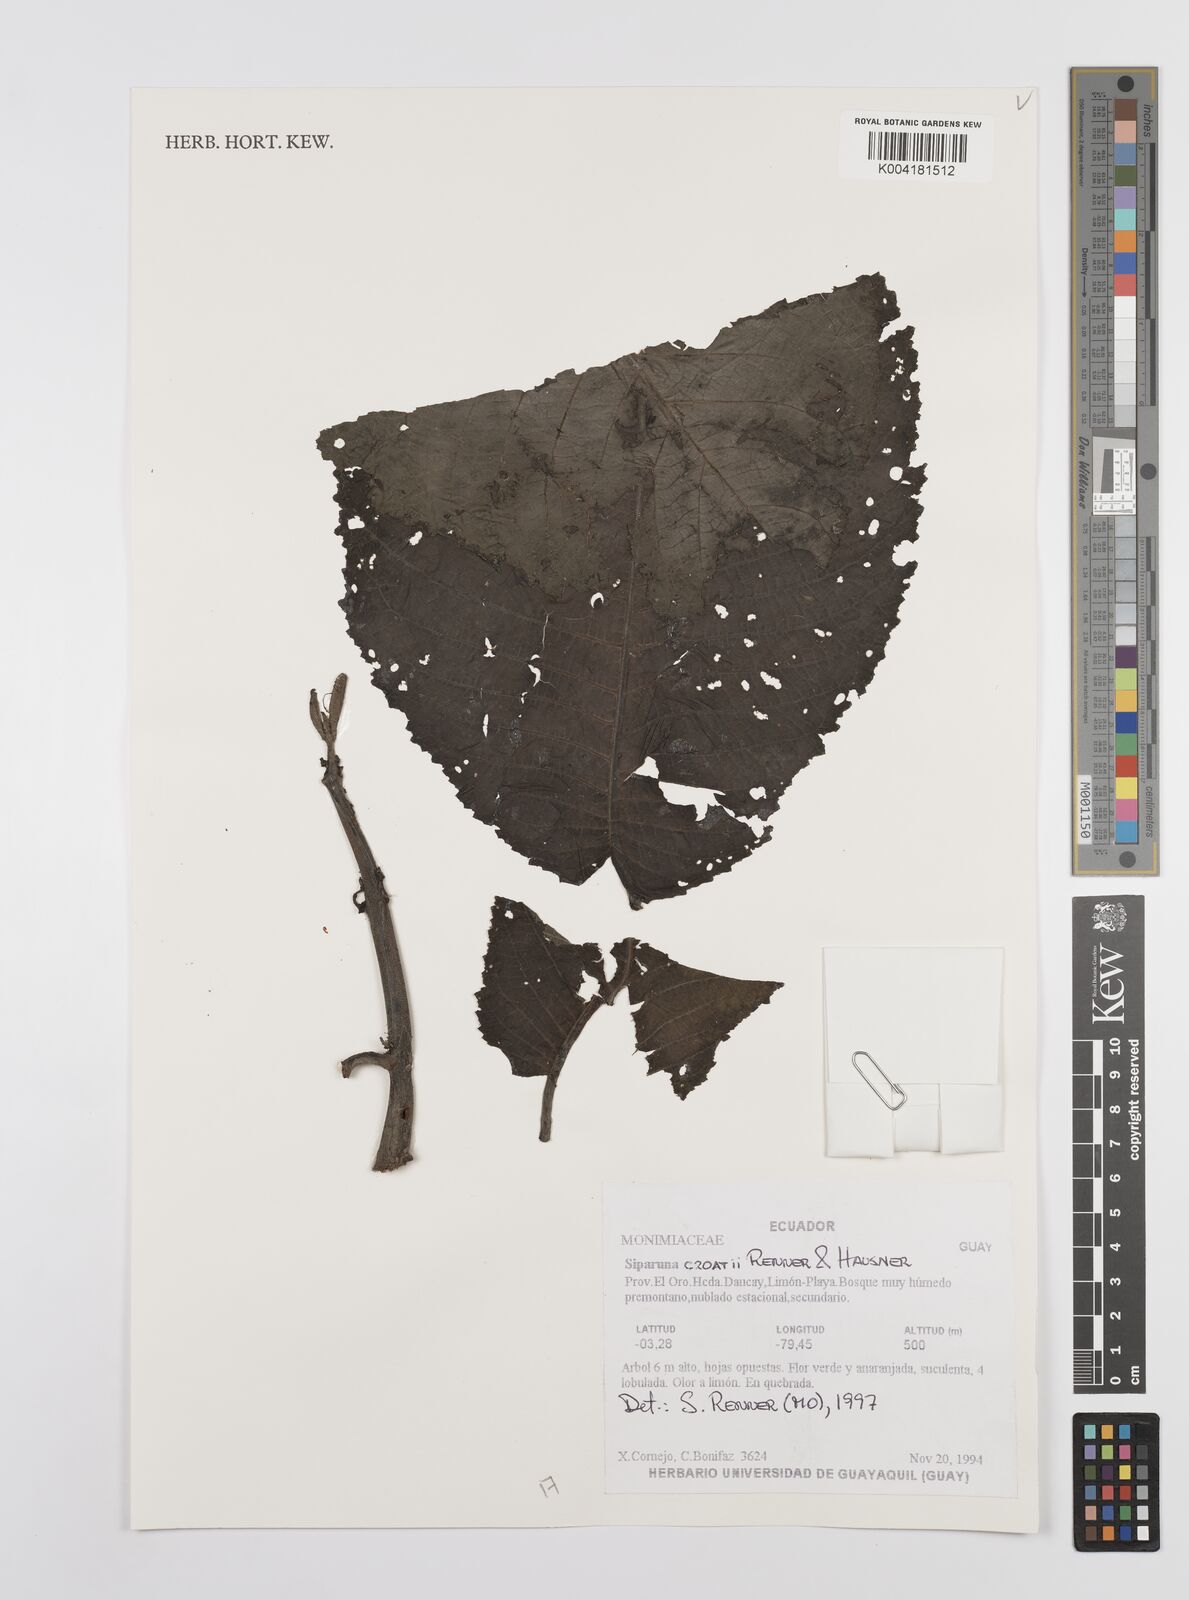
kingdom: Plantae
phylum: Tracheophyta
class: Magnoliopsida
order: Laurales
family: Siparunaceae
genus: Siparuna
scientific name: Siparuna croatii
